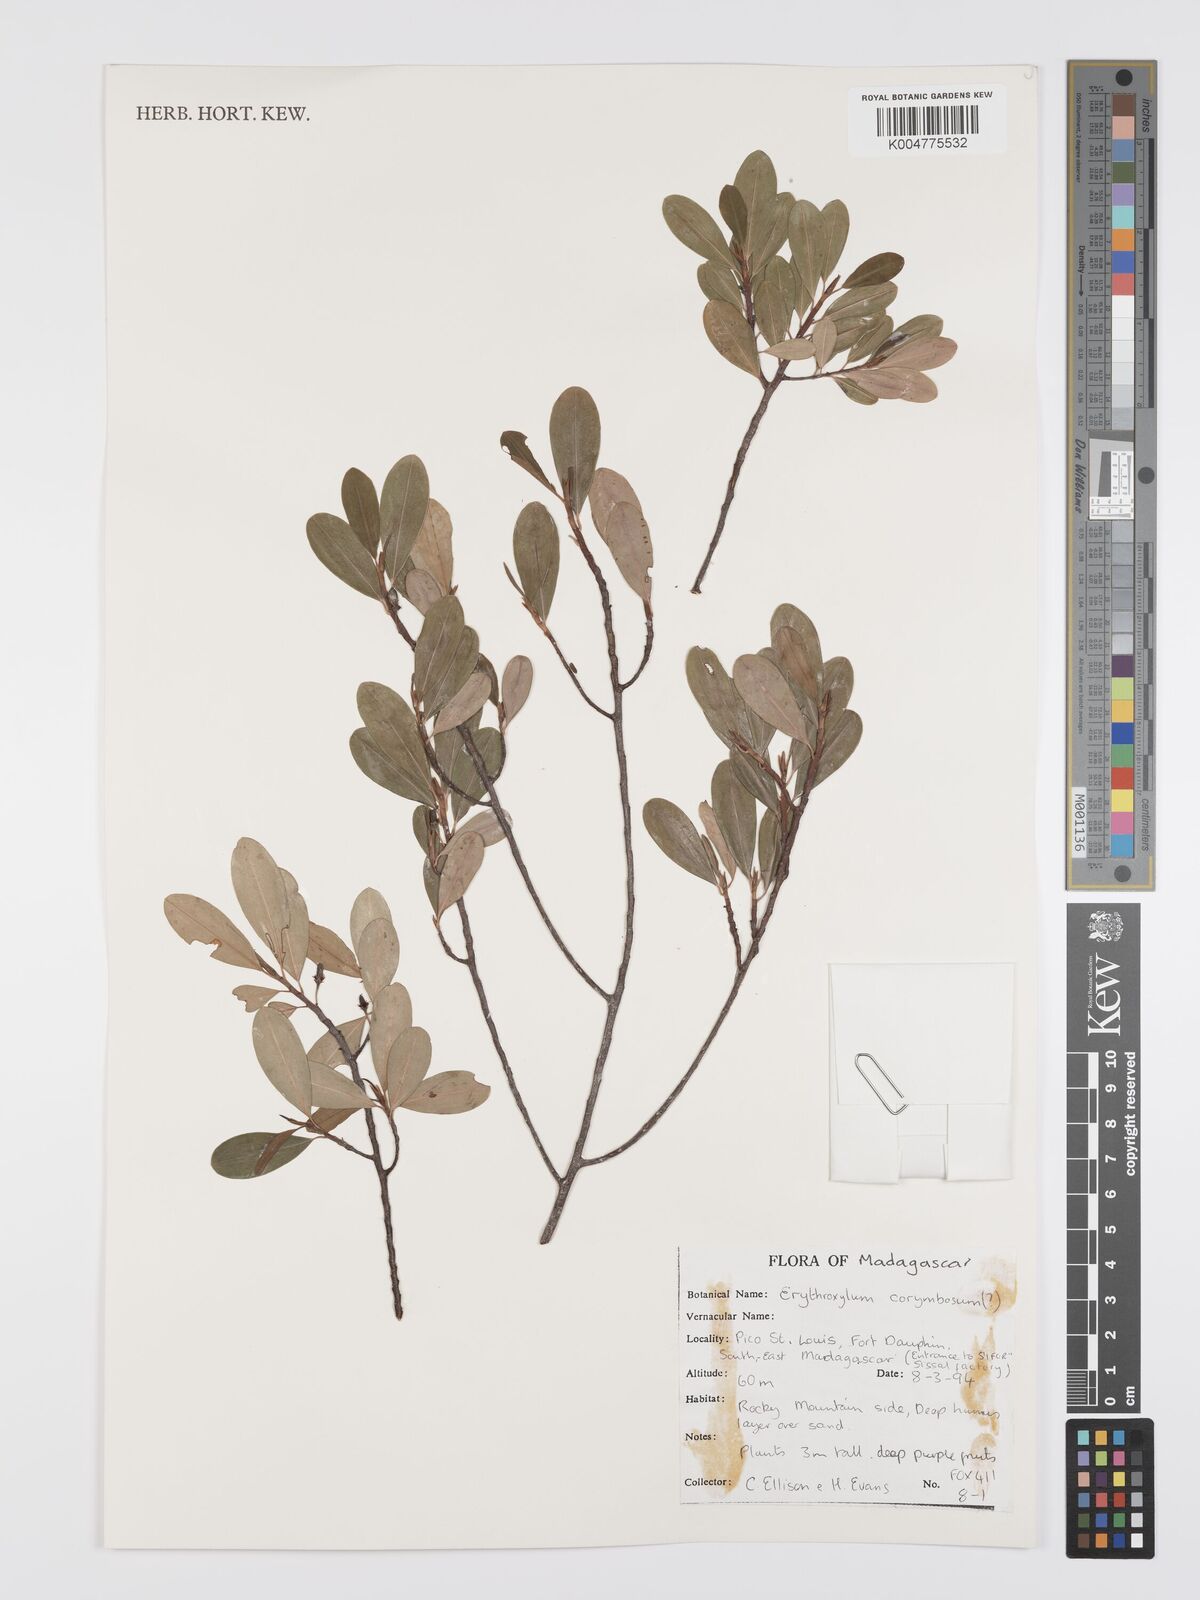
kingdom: Plantae
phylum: Tracheophyta
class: Magnoliopsida
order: Malpighiales
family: Erythroxylaceae
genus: Erythroxylum
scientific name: Erythroxylum corymbosum
